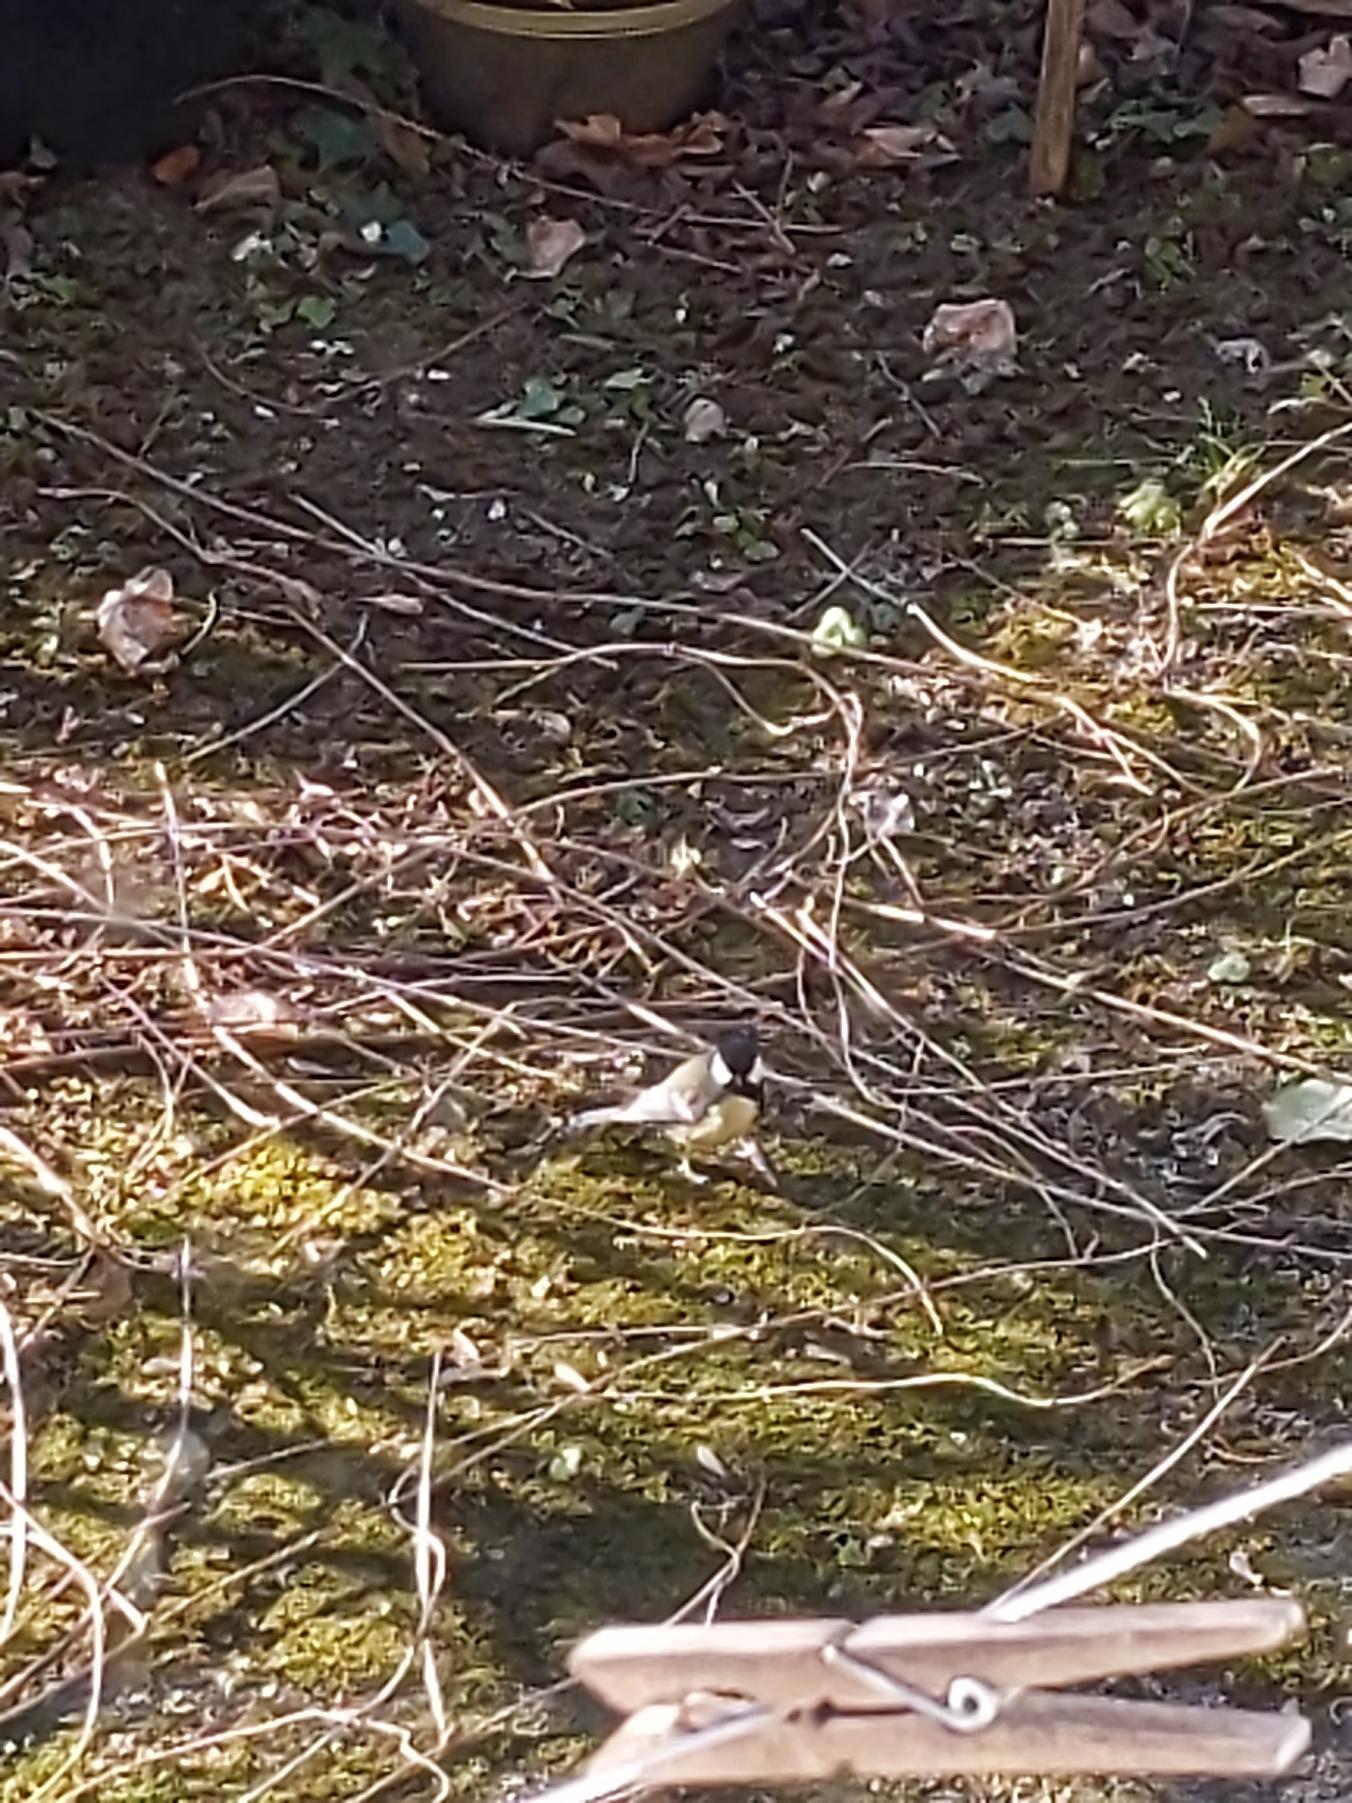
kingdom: Animalia
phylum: Chordata
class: Aves
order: Passeriformes
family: Paridae
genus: Parus
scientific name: Parus major
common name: Musvit
